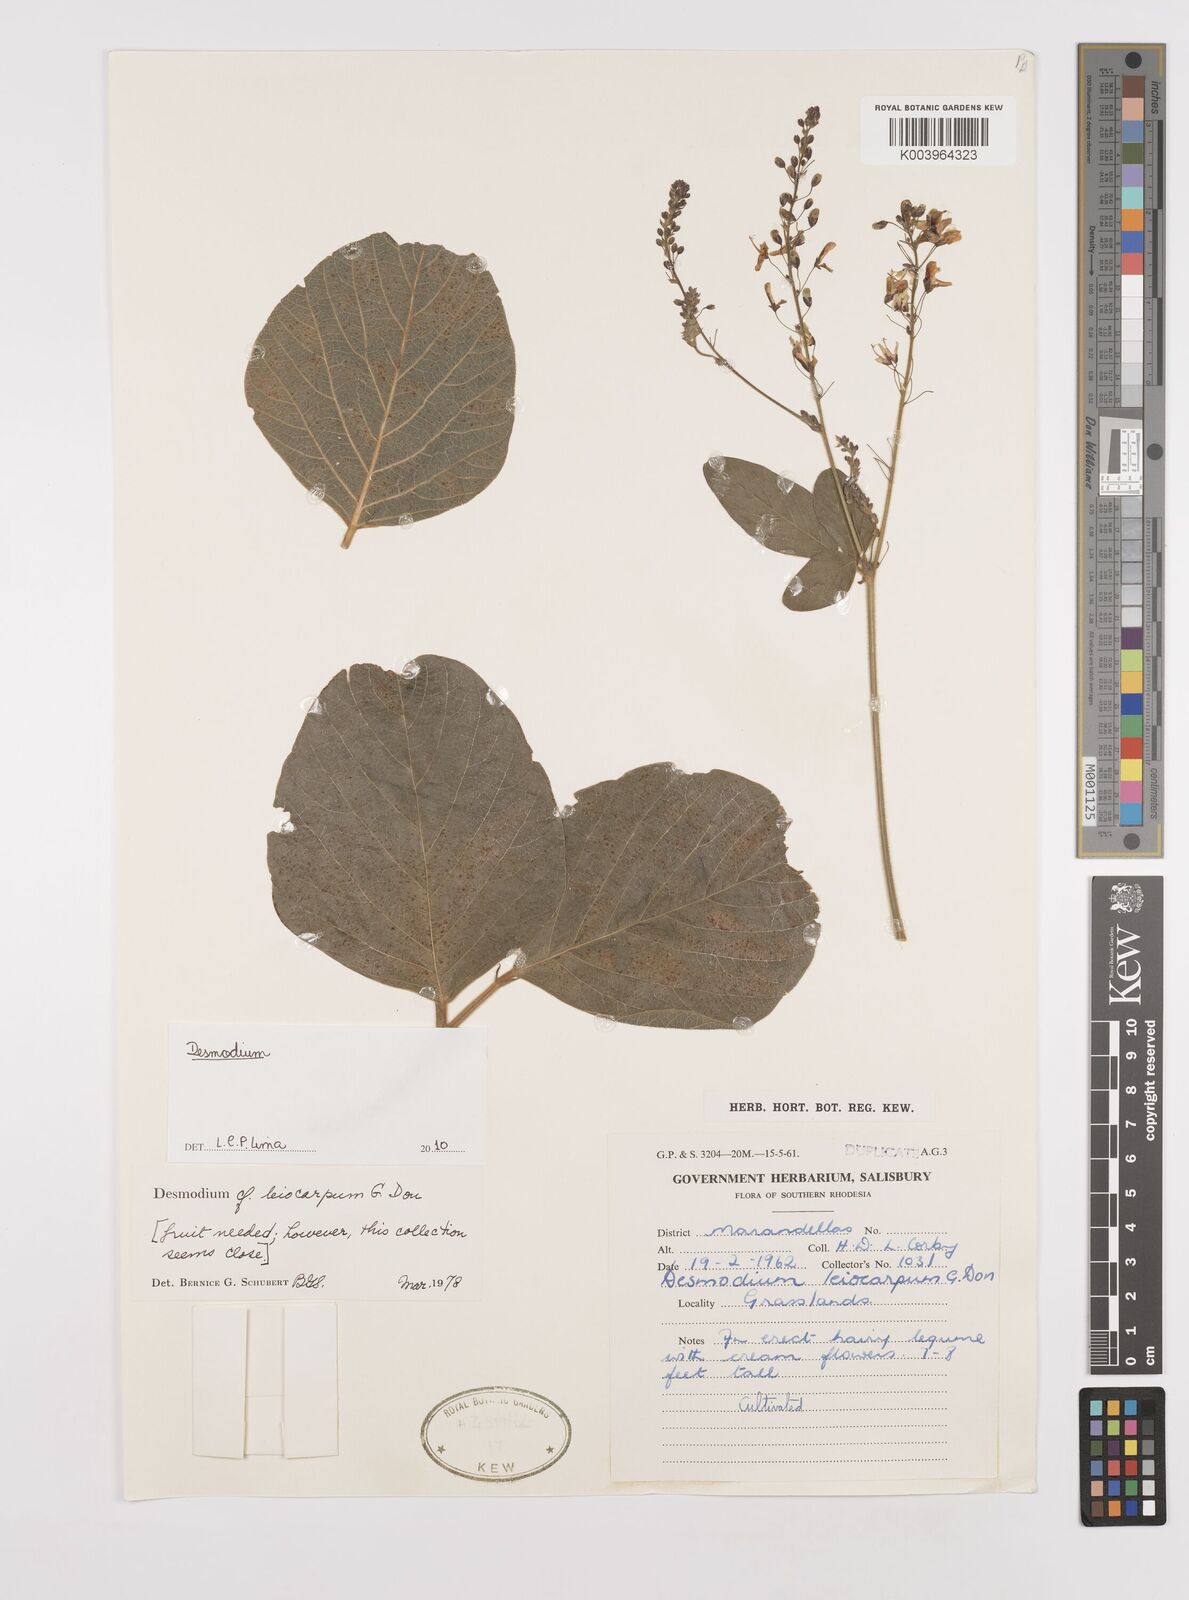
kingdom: Plantae
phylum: Tracheophyta
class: Magnoliopsida
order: Fabales
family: Fabaceae
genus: Desmodium
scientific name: Desmodium
